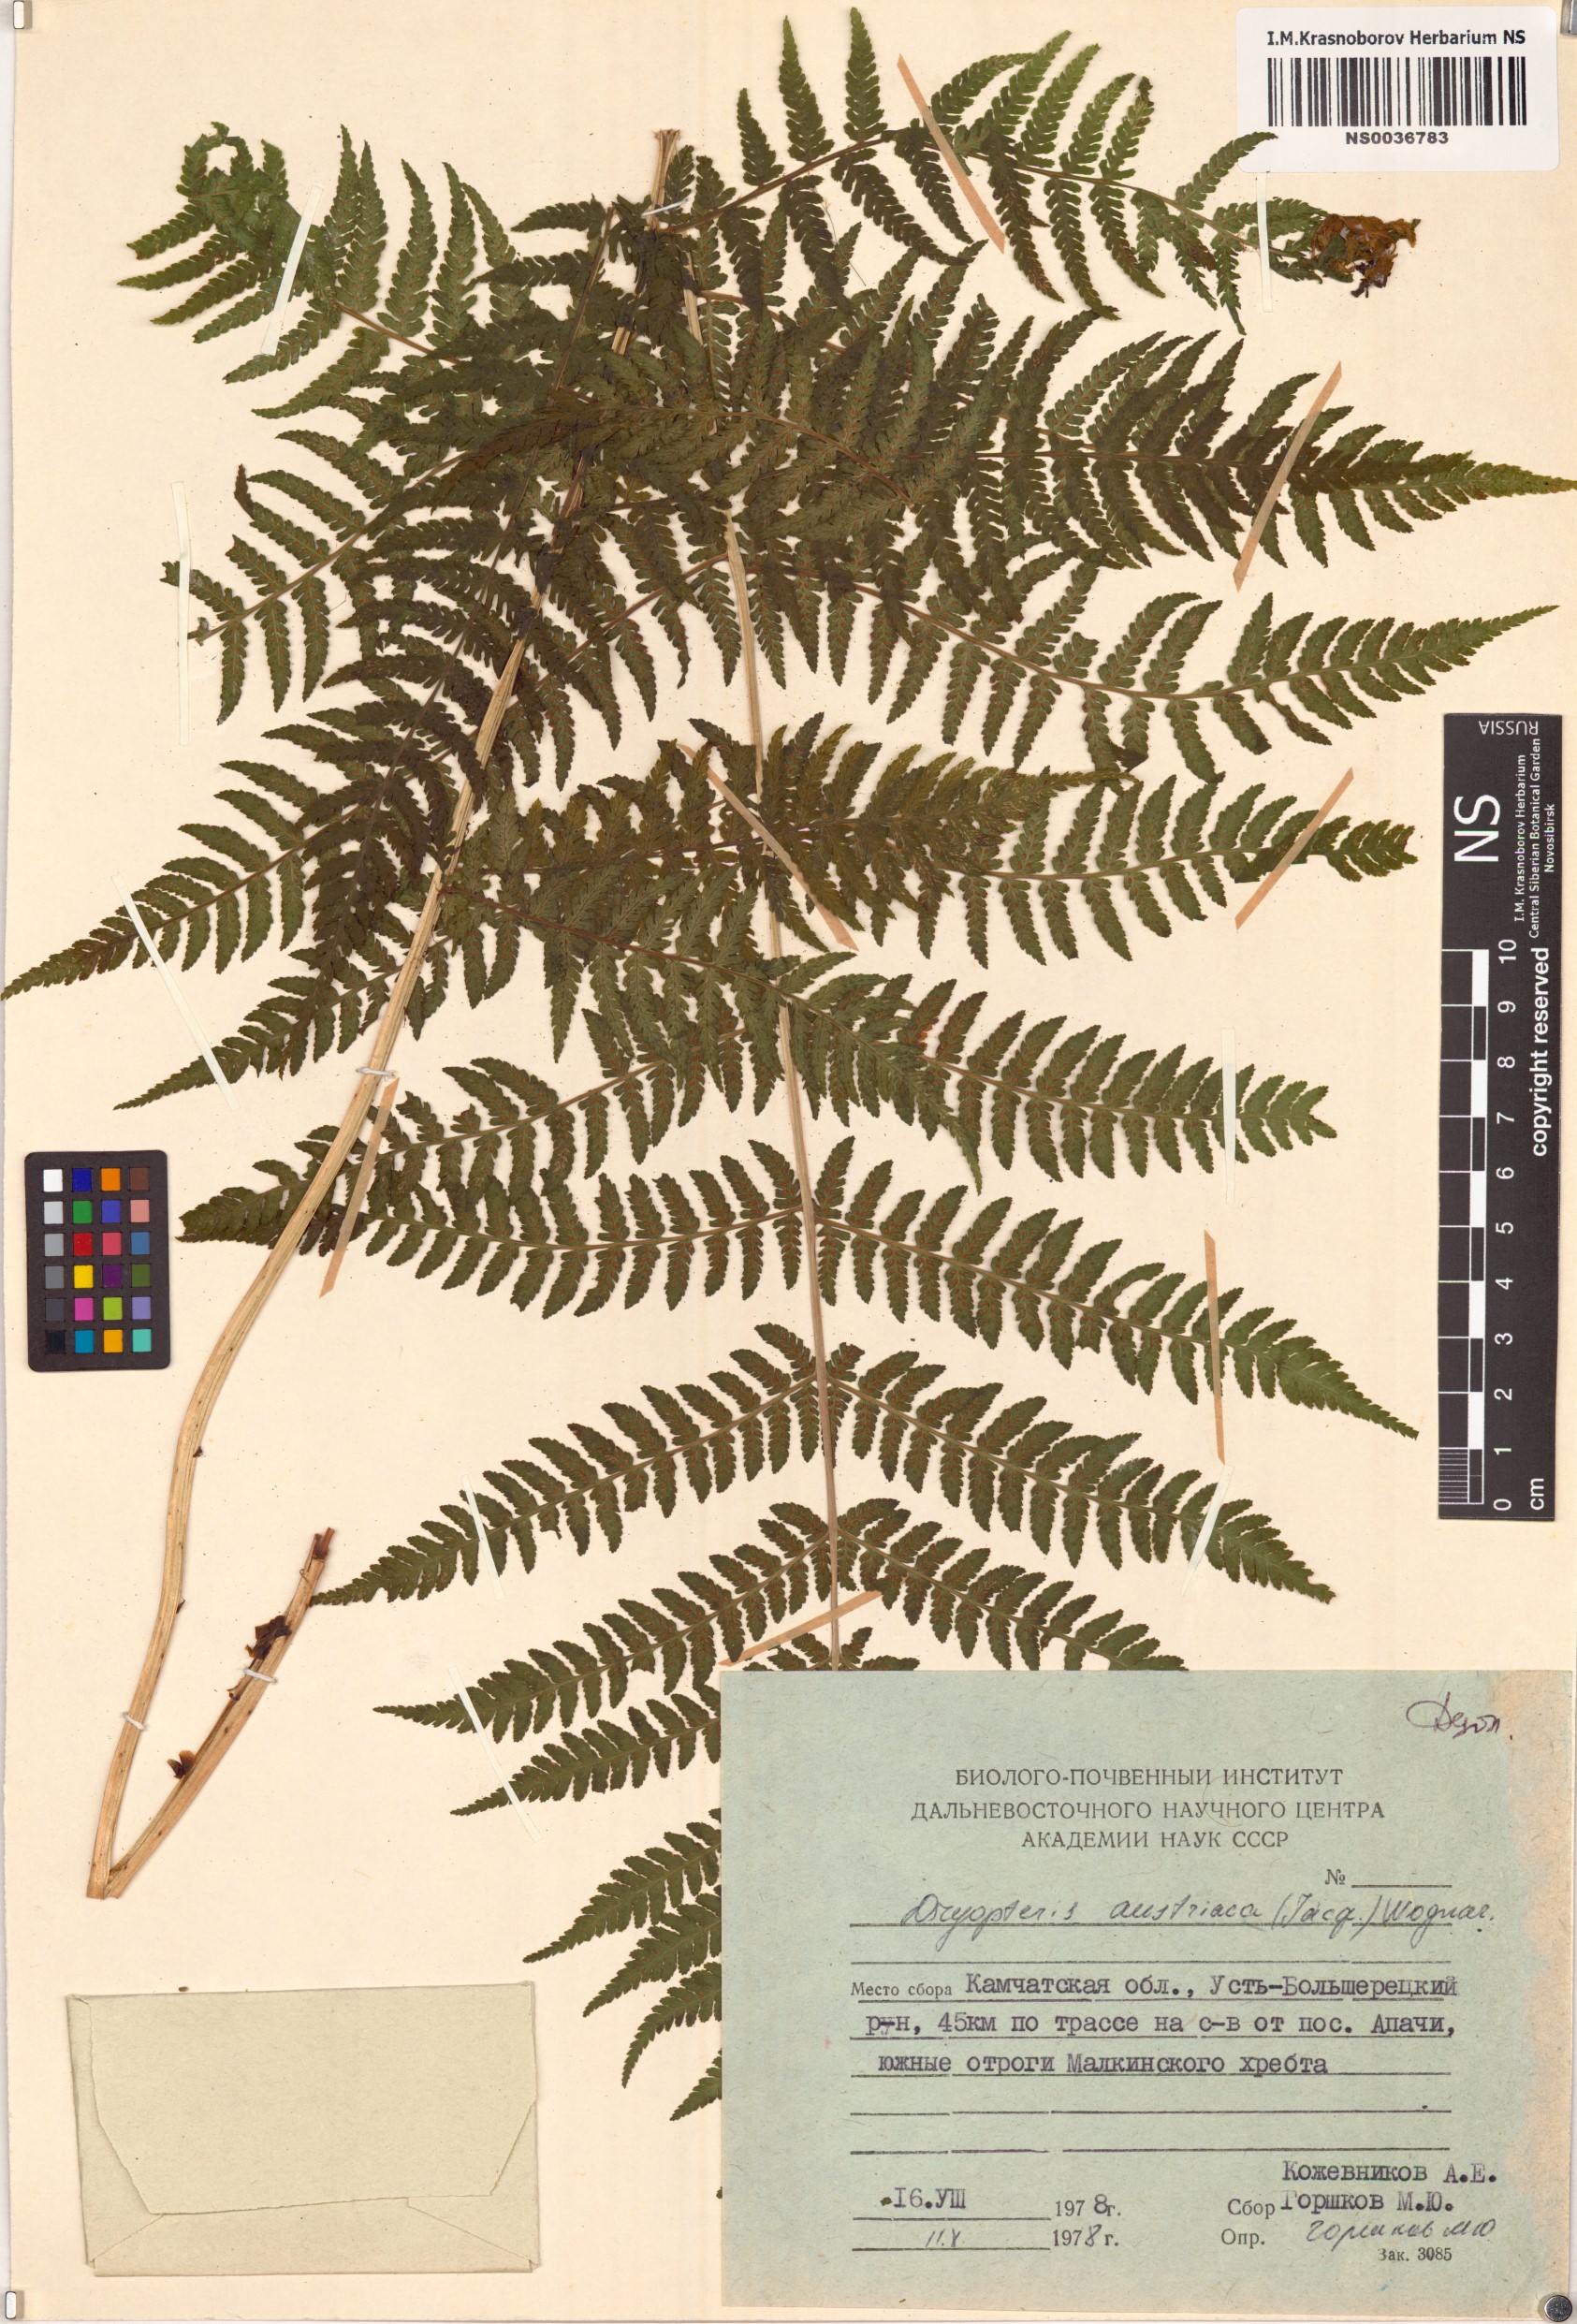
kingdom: Plantae
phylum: Tracheophyta
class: Polypodiopsida
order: Polypodiales
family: Dryopteridaceae
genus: Dryopteris
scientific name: Dryopteris dilatata
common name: Broad buckler-fern
